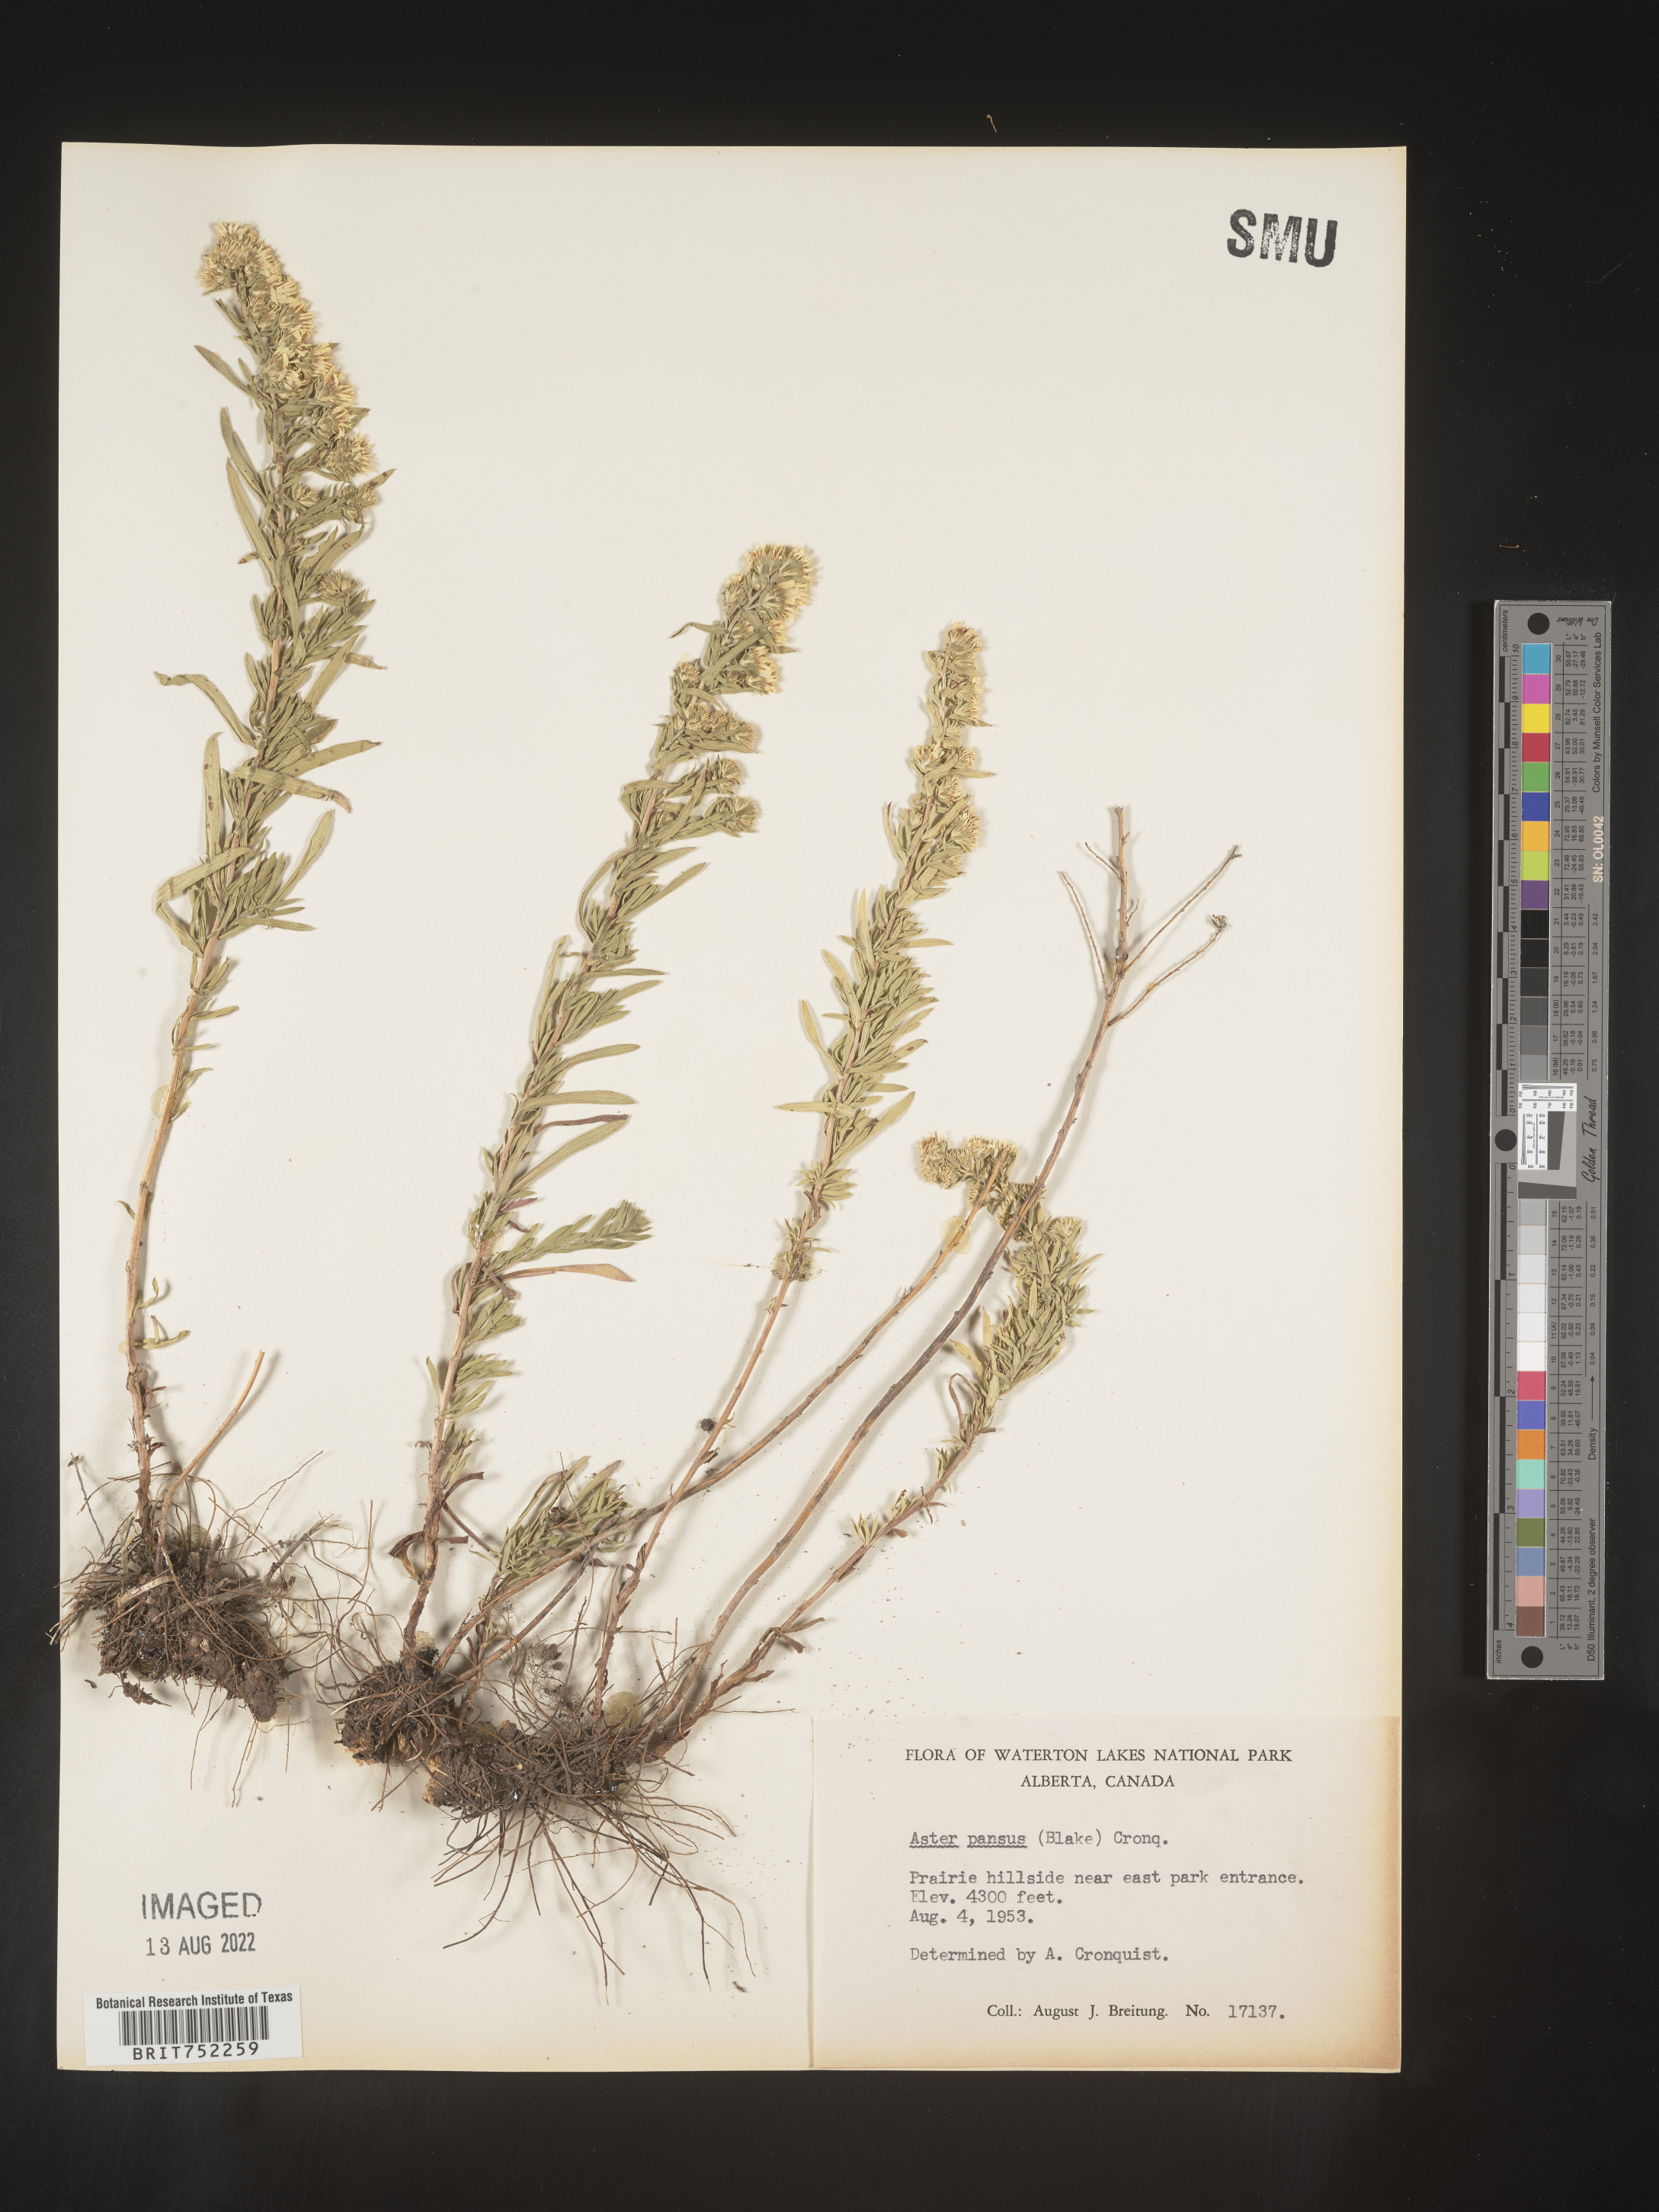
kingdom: Plantae
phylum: Tracheophyta
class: Magnoliopsida
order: Asterales
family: Asteraceae
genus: Symphyotrichum
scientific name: Symphyotrichum ericoides
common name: Heath aster
